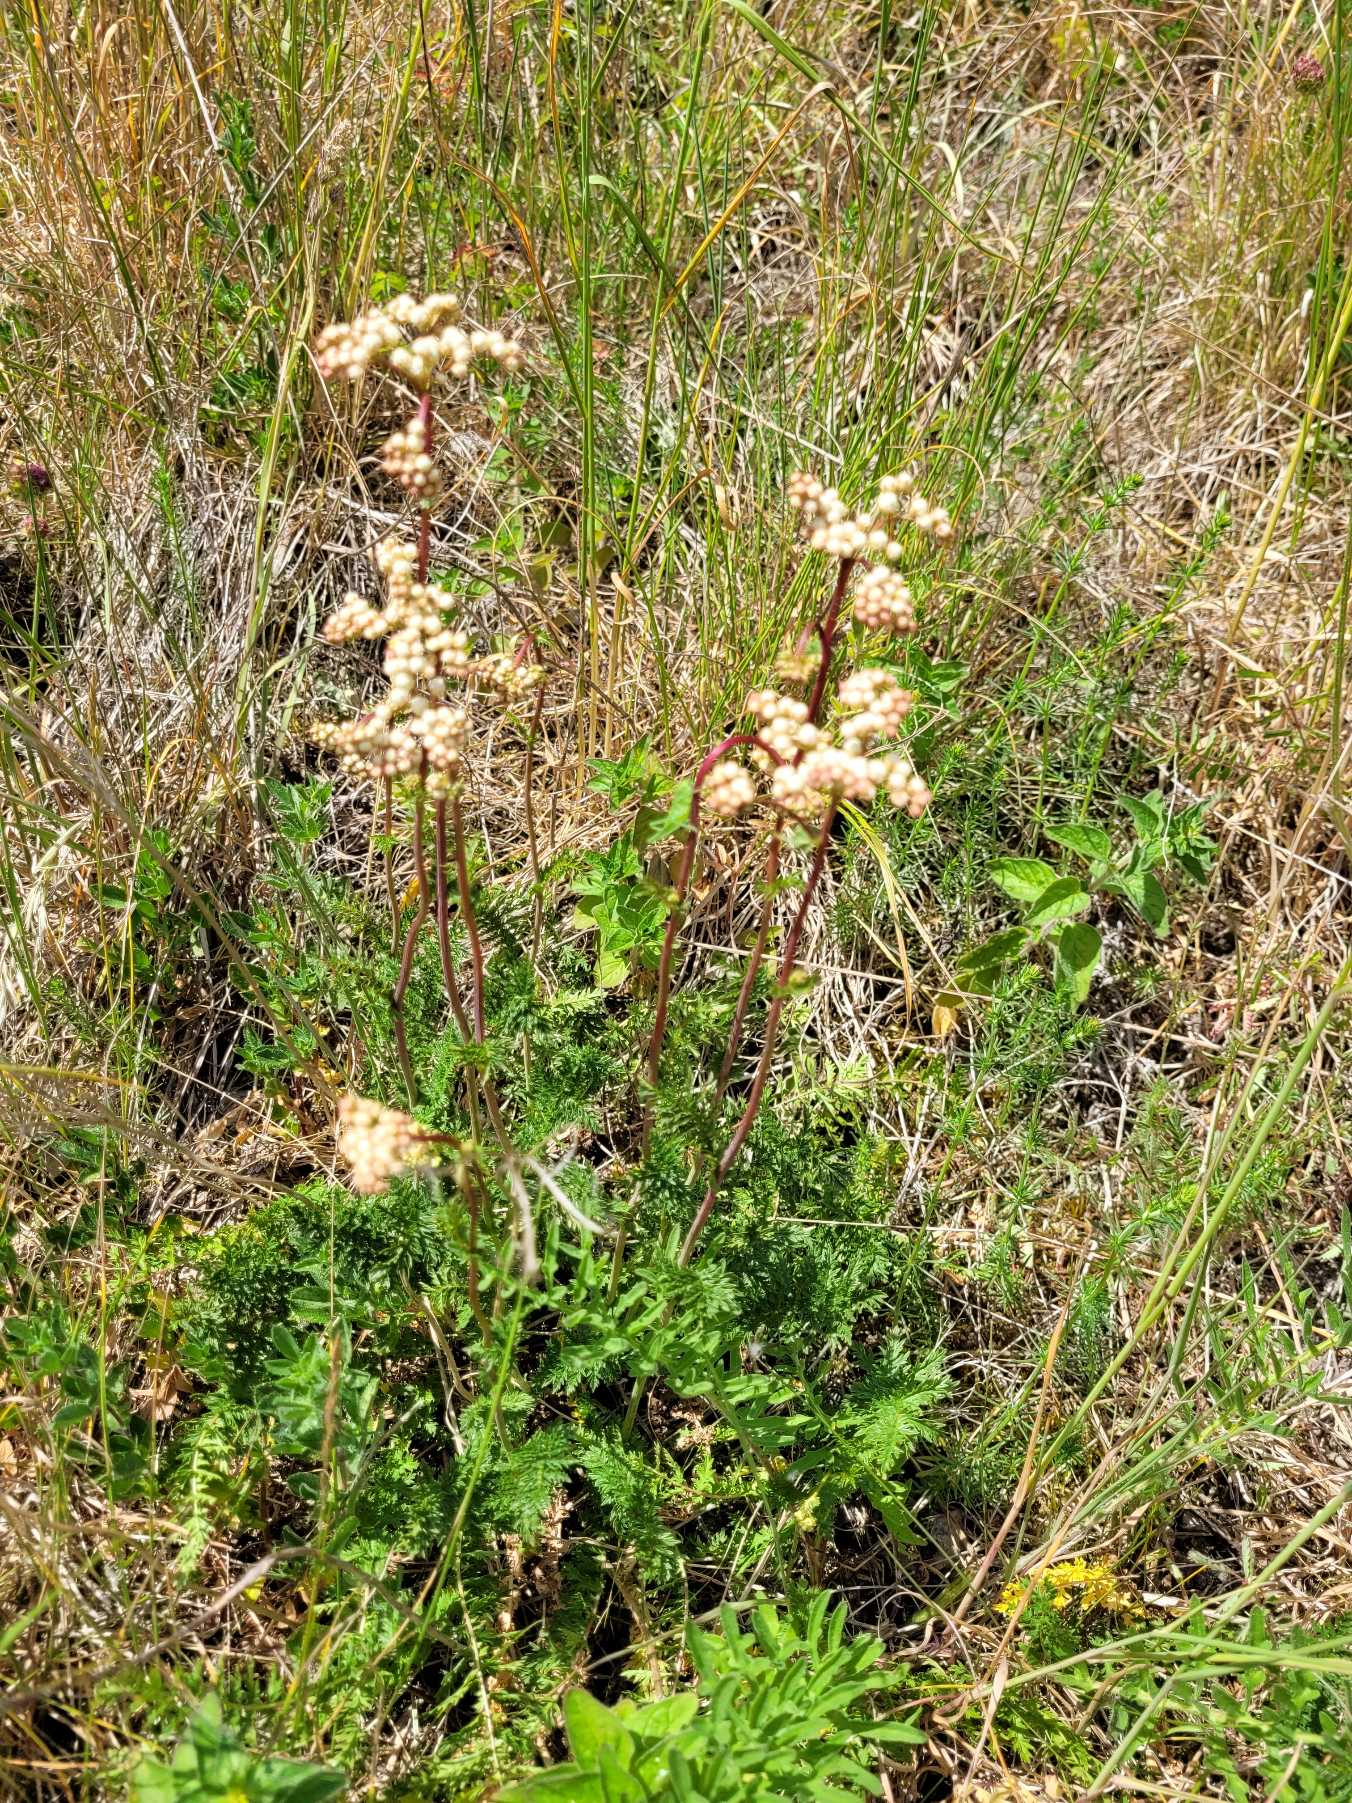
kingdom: Plantae
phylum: Tracheophyta
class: Magnoliopsida
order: Rosales
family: Rosaceae
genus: Filipendula
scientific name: Filipendula vulgaris
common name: Knoldet mjødurt
